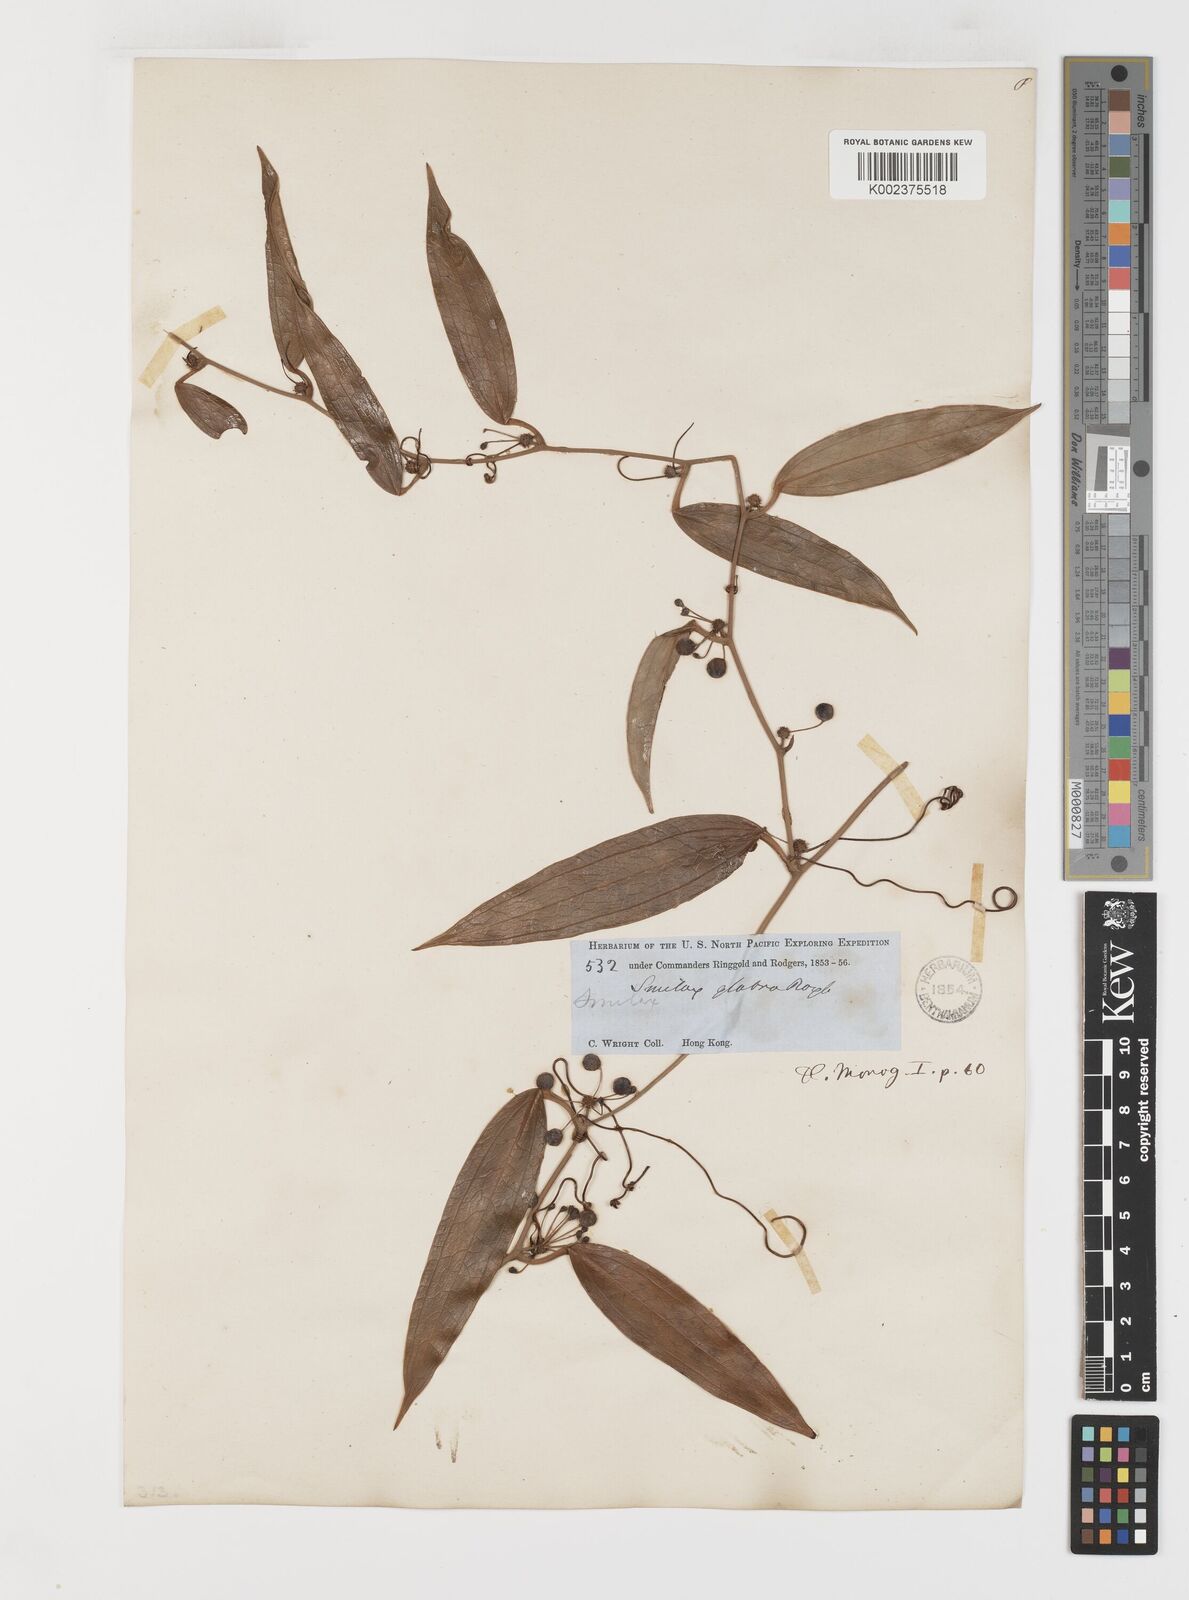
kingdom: Plantae
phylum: Tracheophyta
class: Liliopsida
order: Liliales
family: Smilacaceae
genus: Smilax
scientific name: Smilax glabra
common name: Chinese smilax
